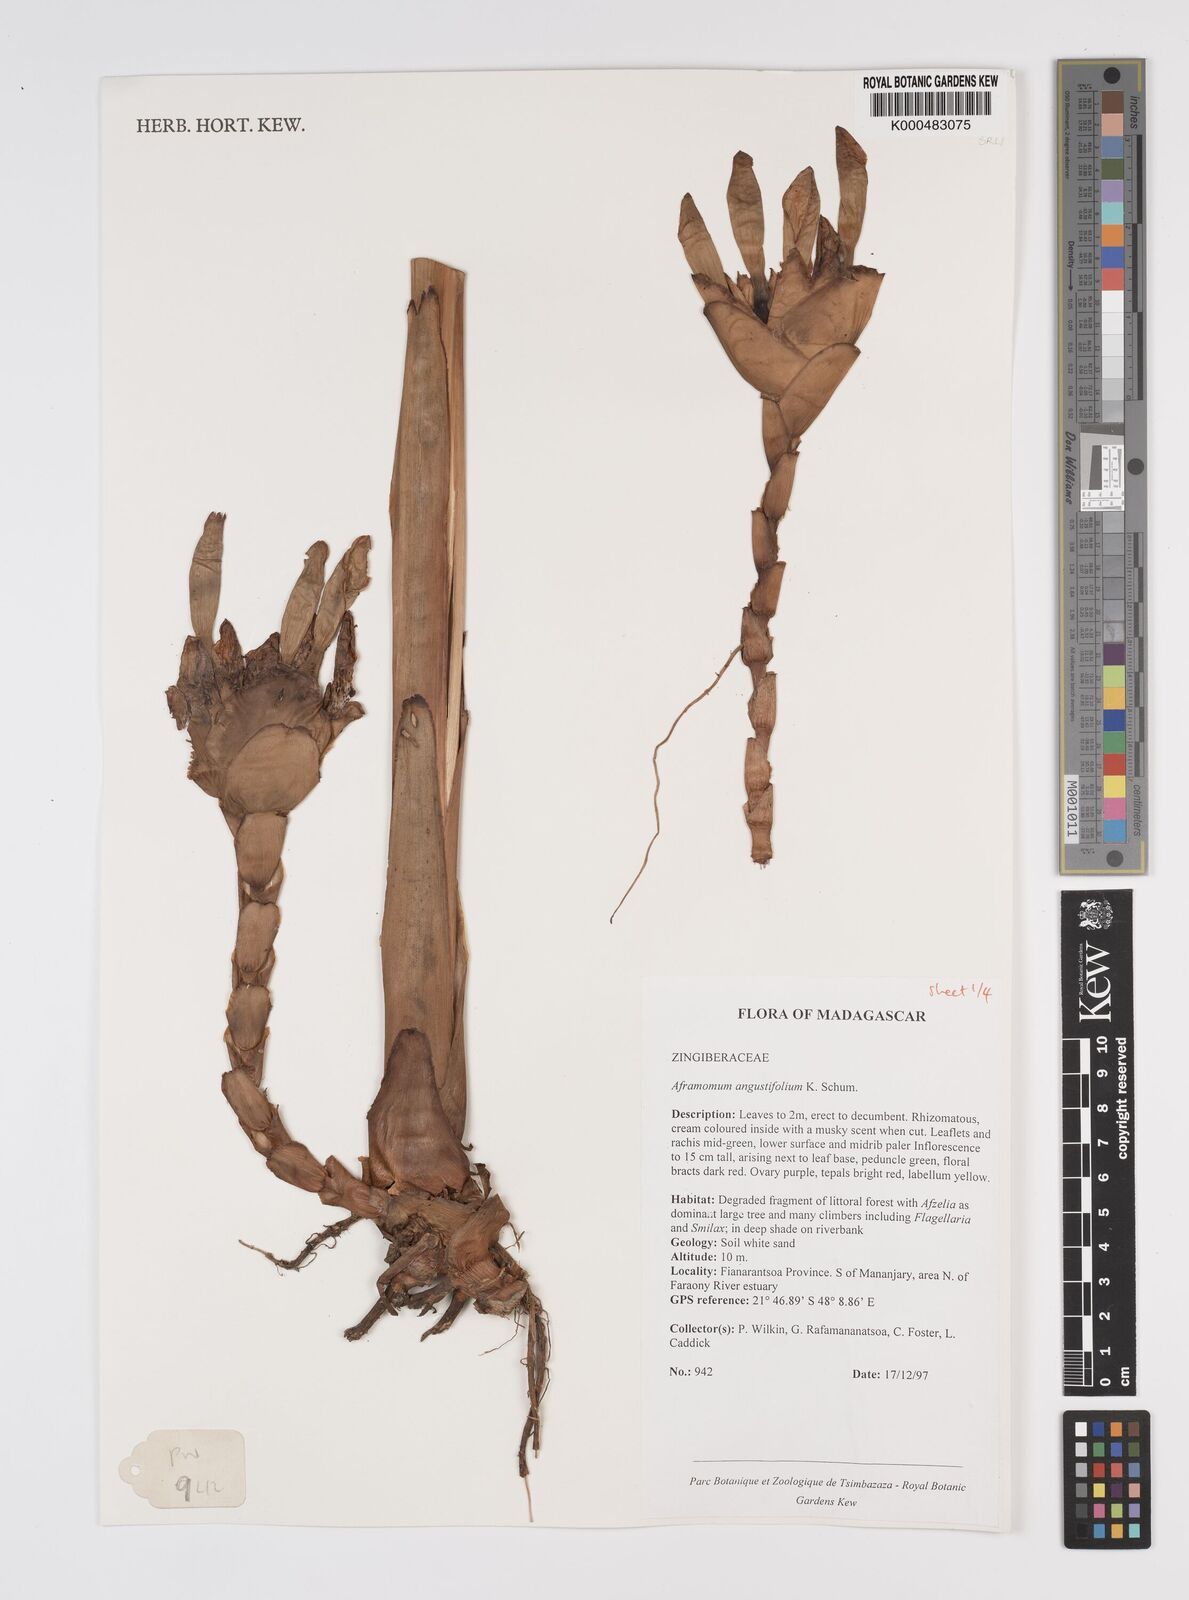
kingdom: Plantae
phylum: Tracheophyta
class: Liliopsida
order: Zingiberales
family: Zingiberaceae
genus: Aframomum
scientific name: Aframomum angustifolium
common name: Guinea grains
